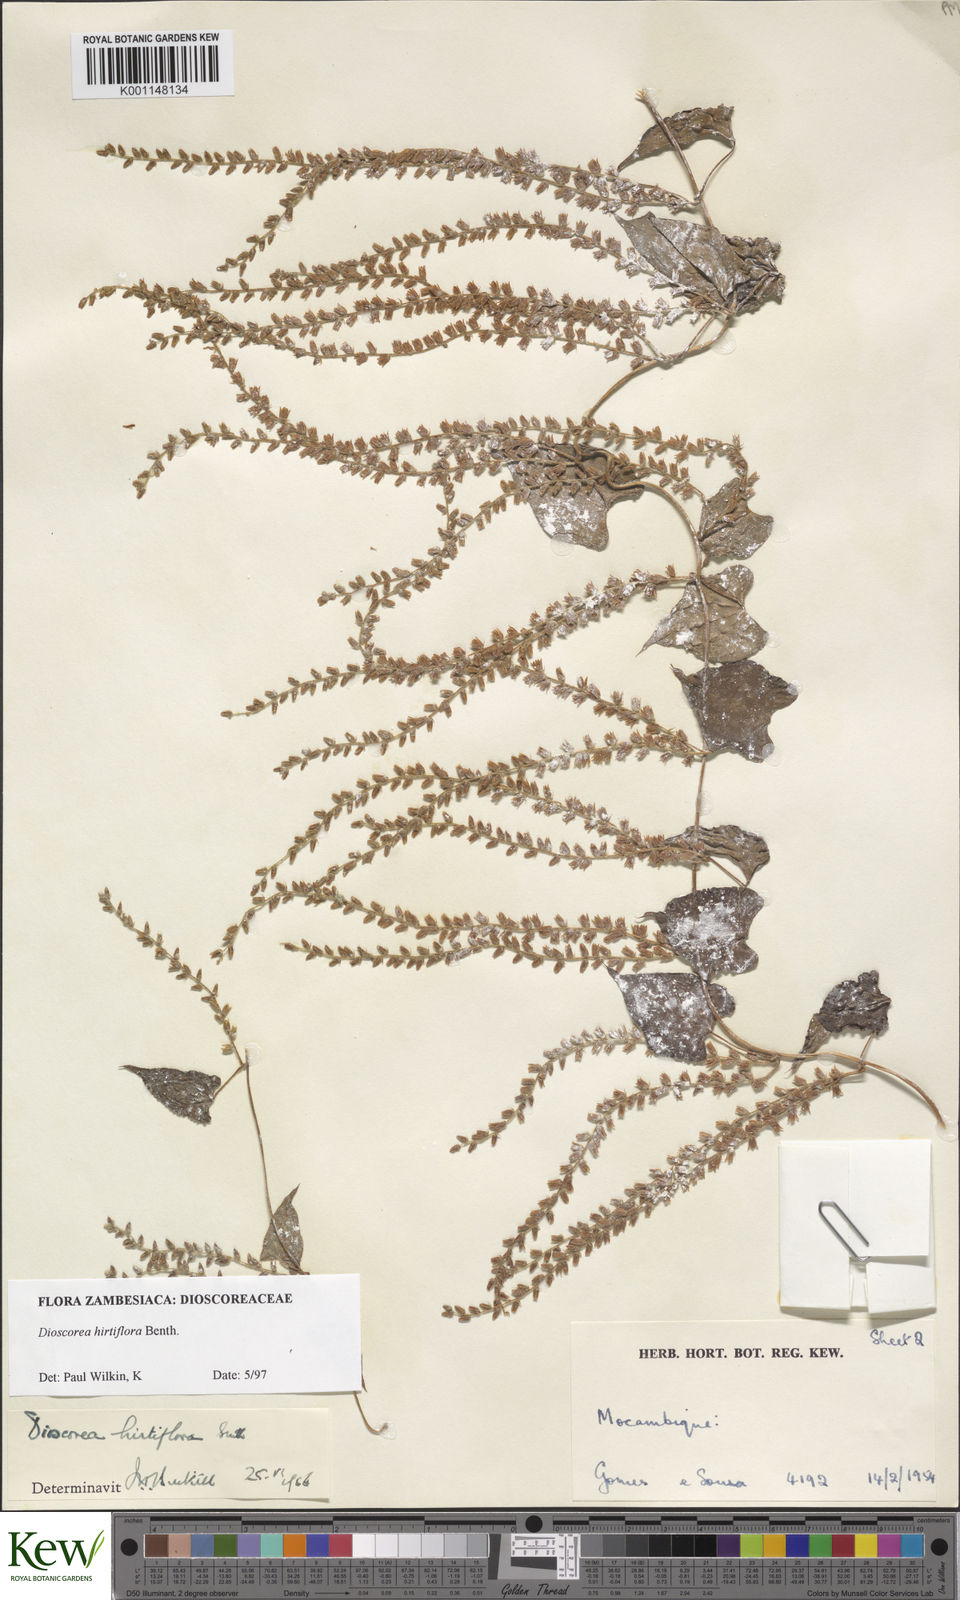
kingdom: Plantae
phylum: Tracheophyta
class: Liliopsida
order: Dioscoreales
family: Dioscoreaceae
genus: Dioscorea
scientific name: Dioscorea hirtiflora
